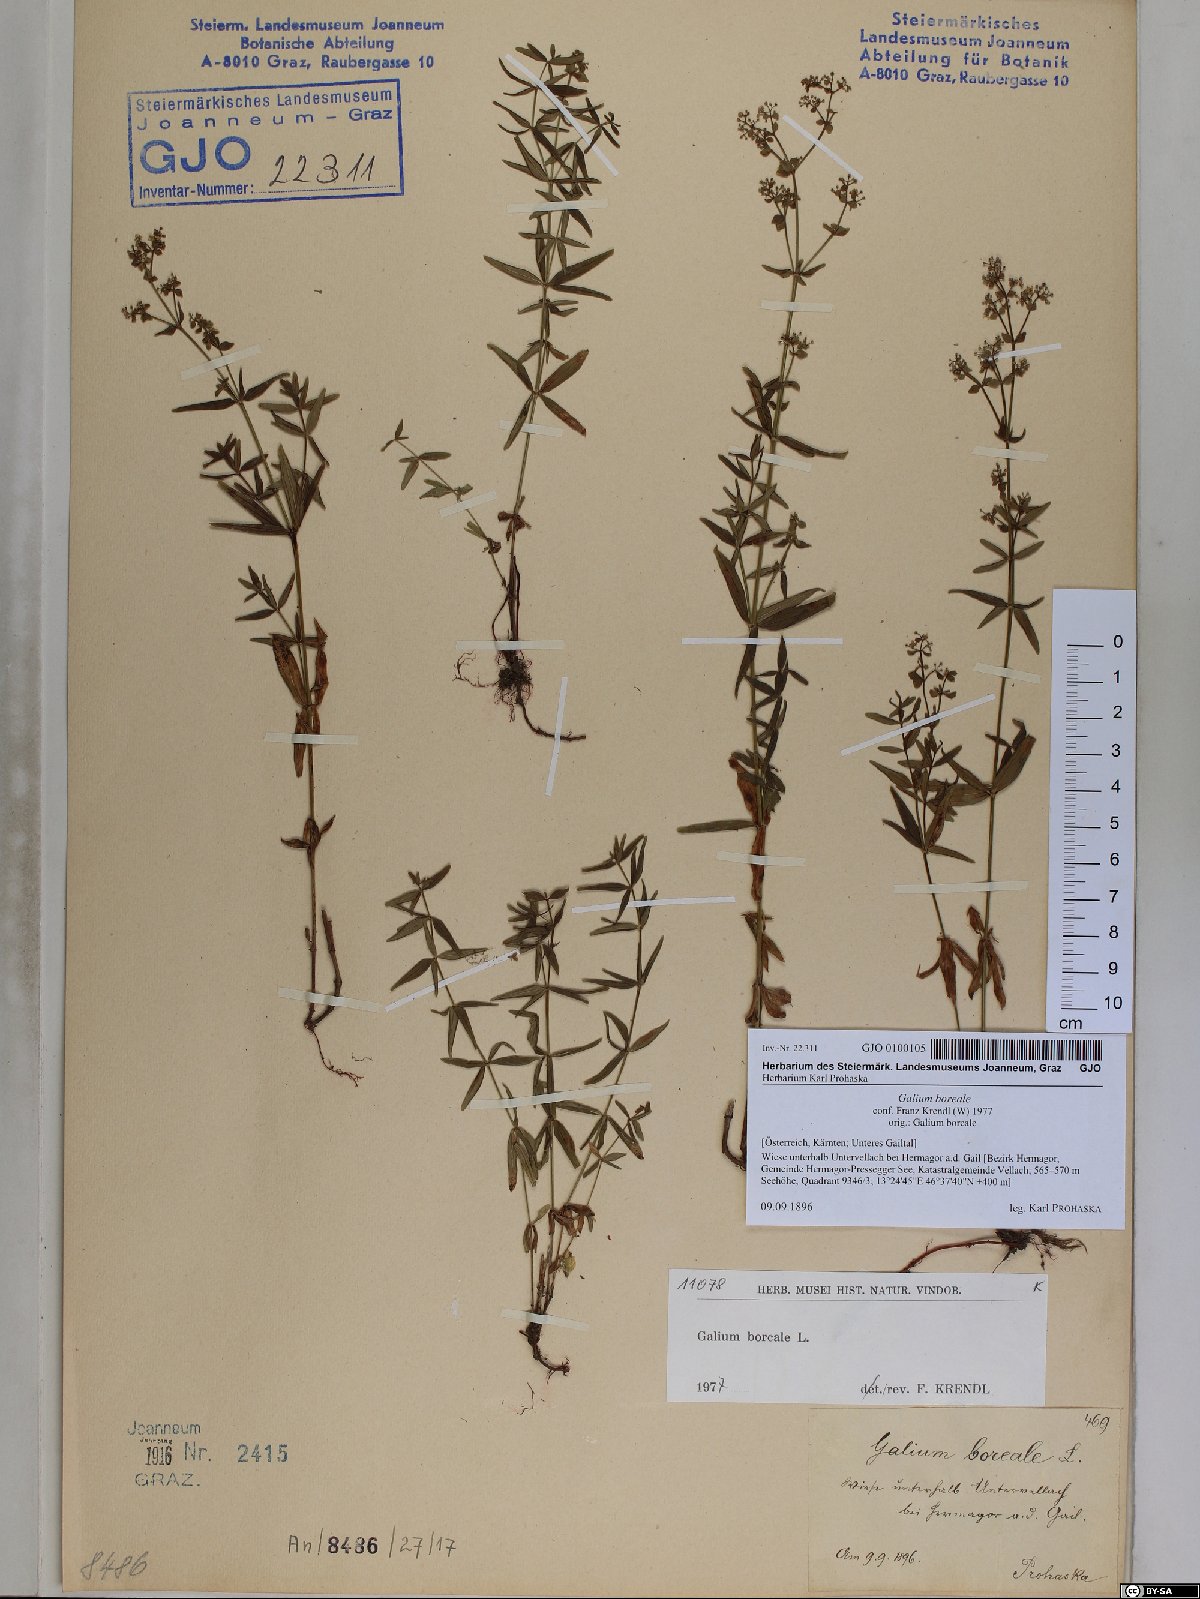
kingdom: Plantae
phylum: Tracheophyta
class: Magnoliopsida
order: Gentianales
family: Rubiaceae
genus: Galium
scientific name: Galium boreale
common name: Northern bedstraw
